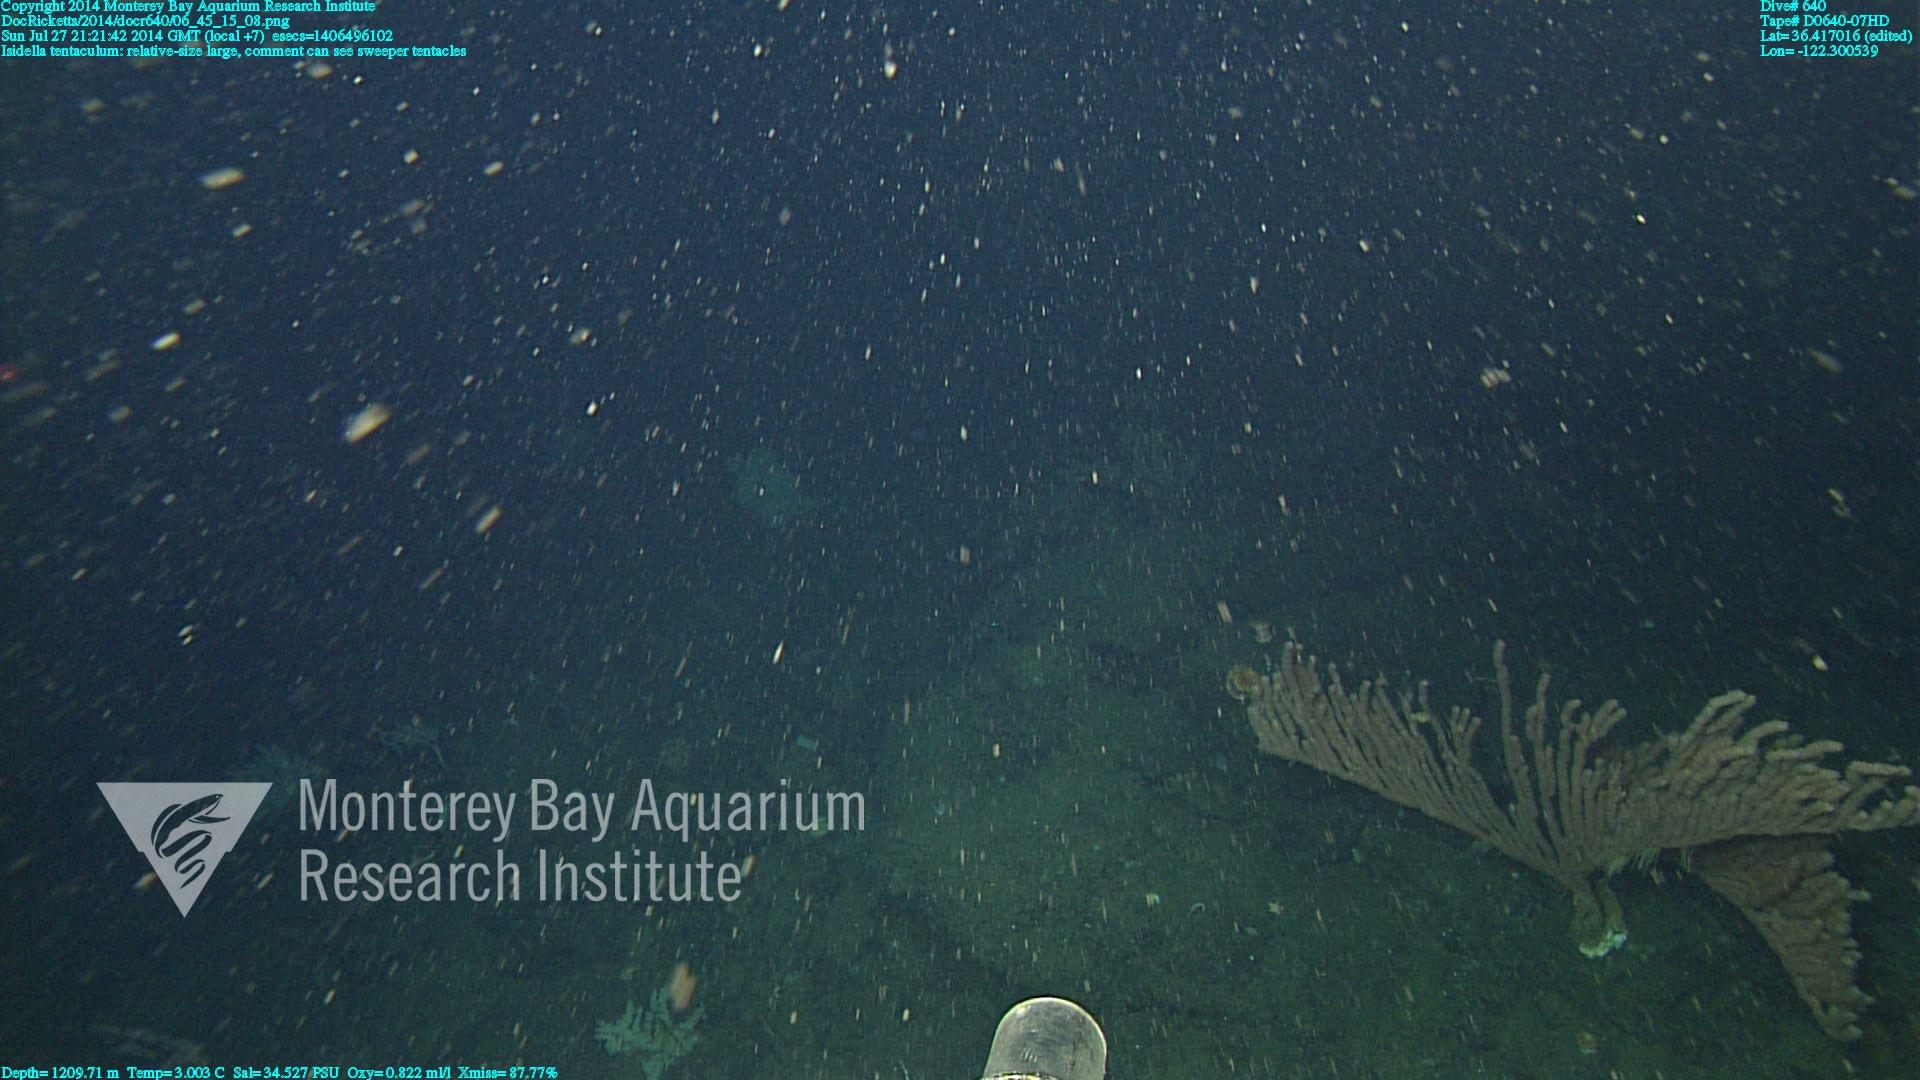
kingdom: Animalia
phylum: Cnidaria
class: Anthozoa
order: Scleralcyonacea
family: Keratoisididae
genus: Isidella
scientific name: Isidella tentaculum
